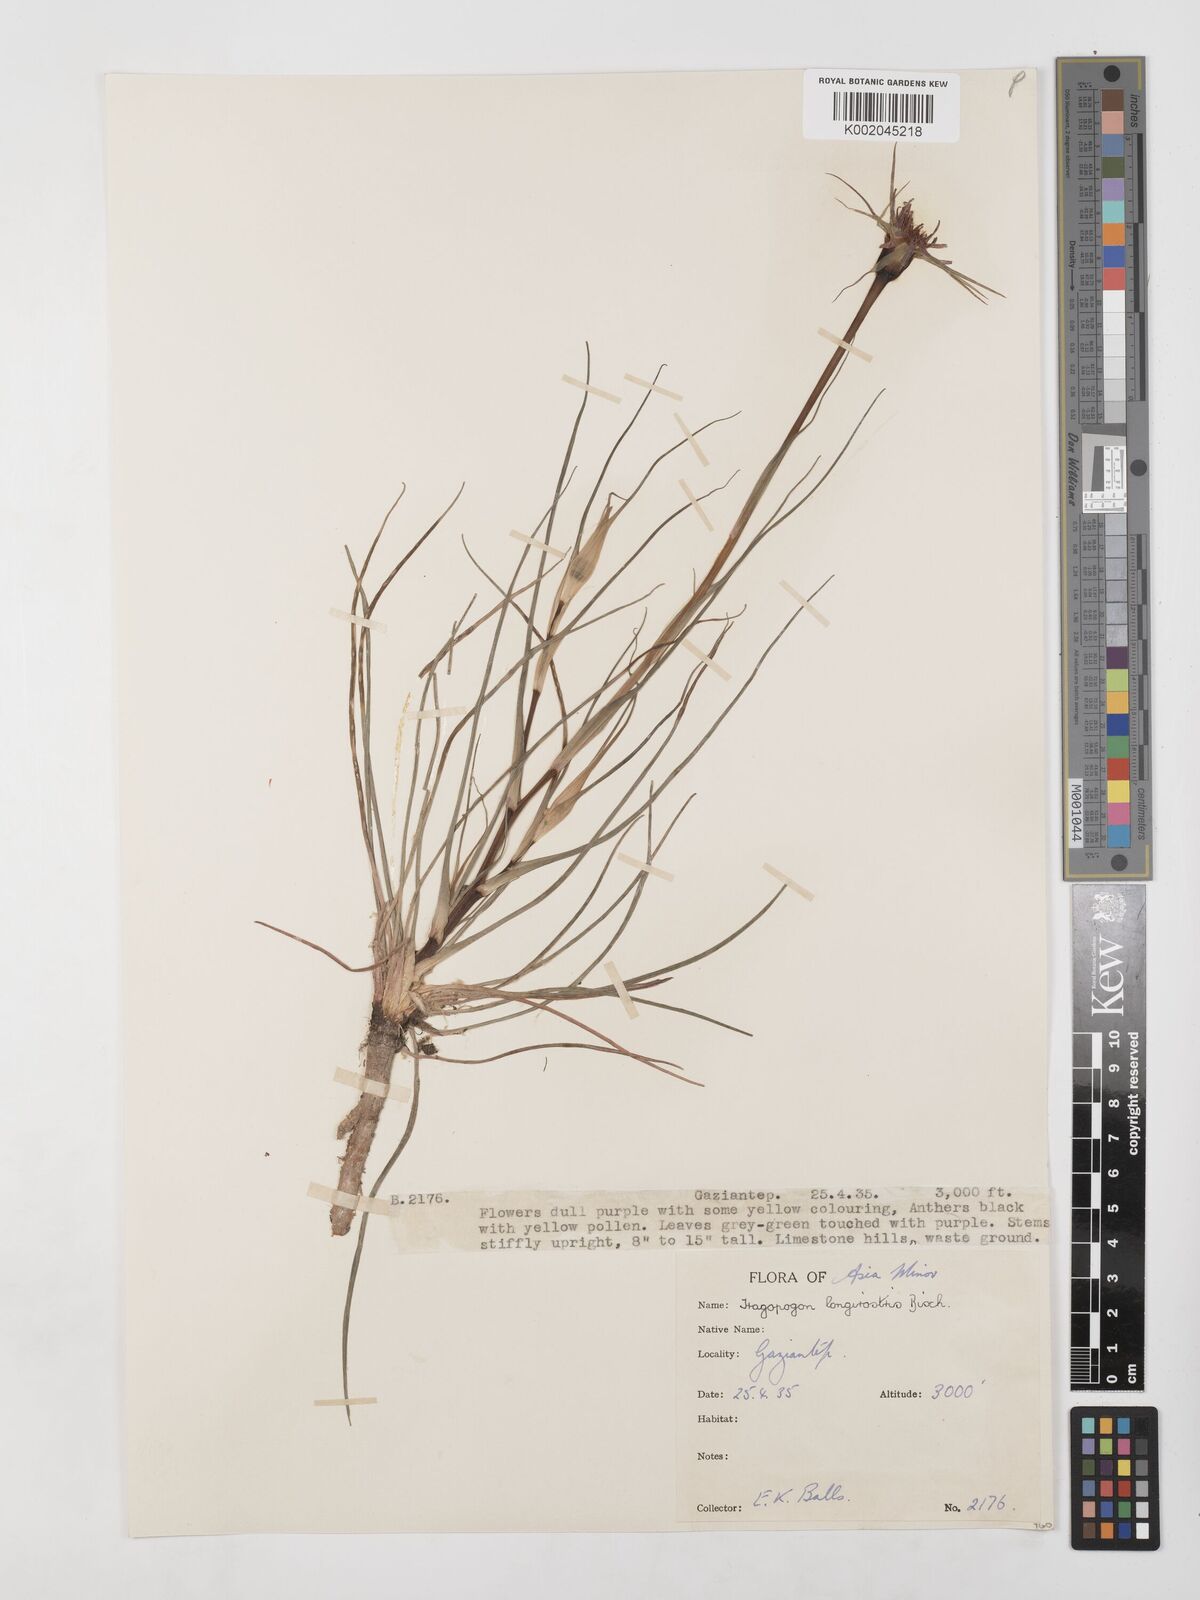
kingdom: Plantae
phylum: Tracheophyta
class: Magnoliopsida
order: Asterales
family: Asteraceae
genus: Tragopogon
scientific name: Tragopogon coelesyriacus
